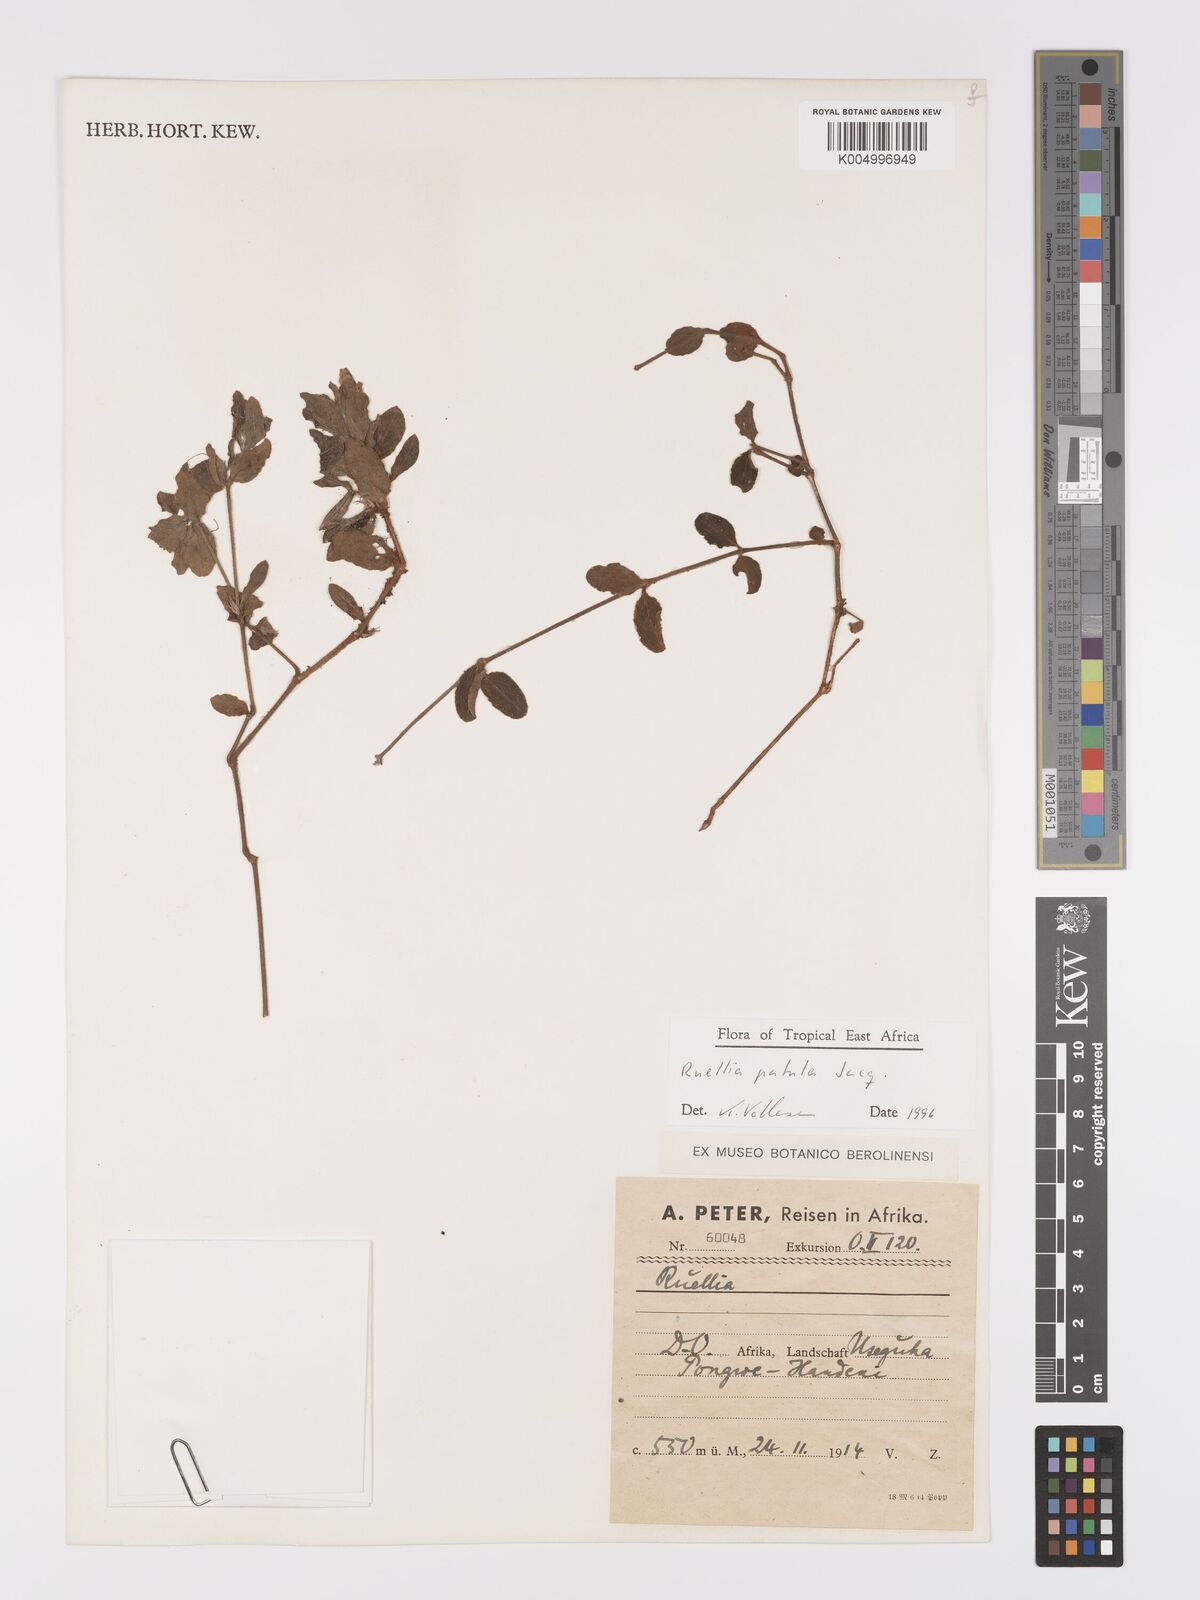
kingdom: Plantae
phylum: Tracheophyta
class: Magnoliopsida
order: Lamiales
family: Acanthaceae
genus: Ruellia
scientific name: Ruellia patula
